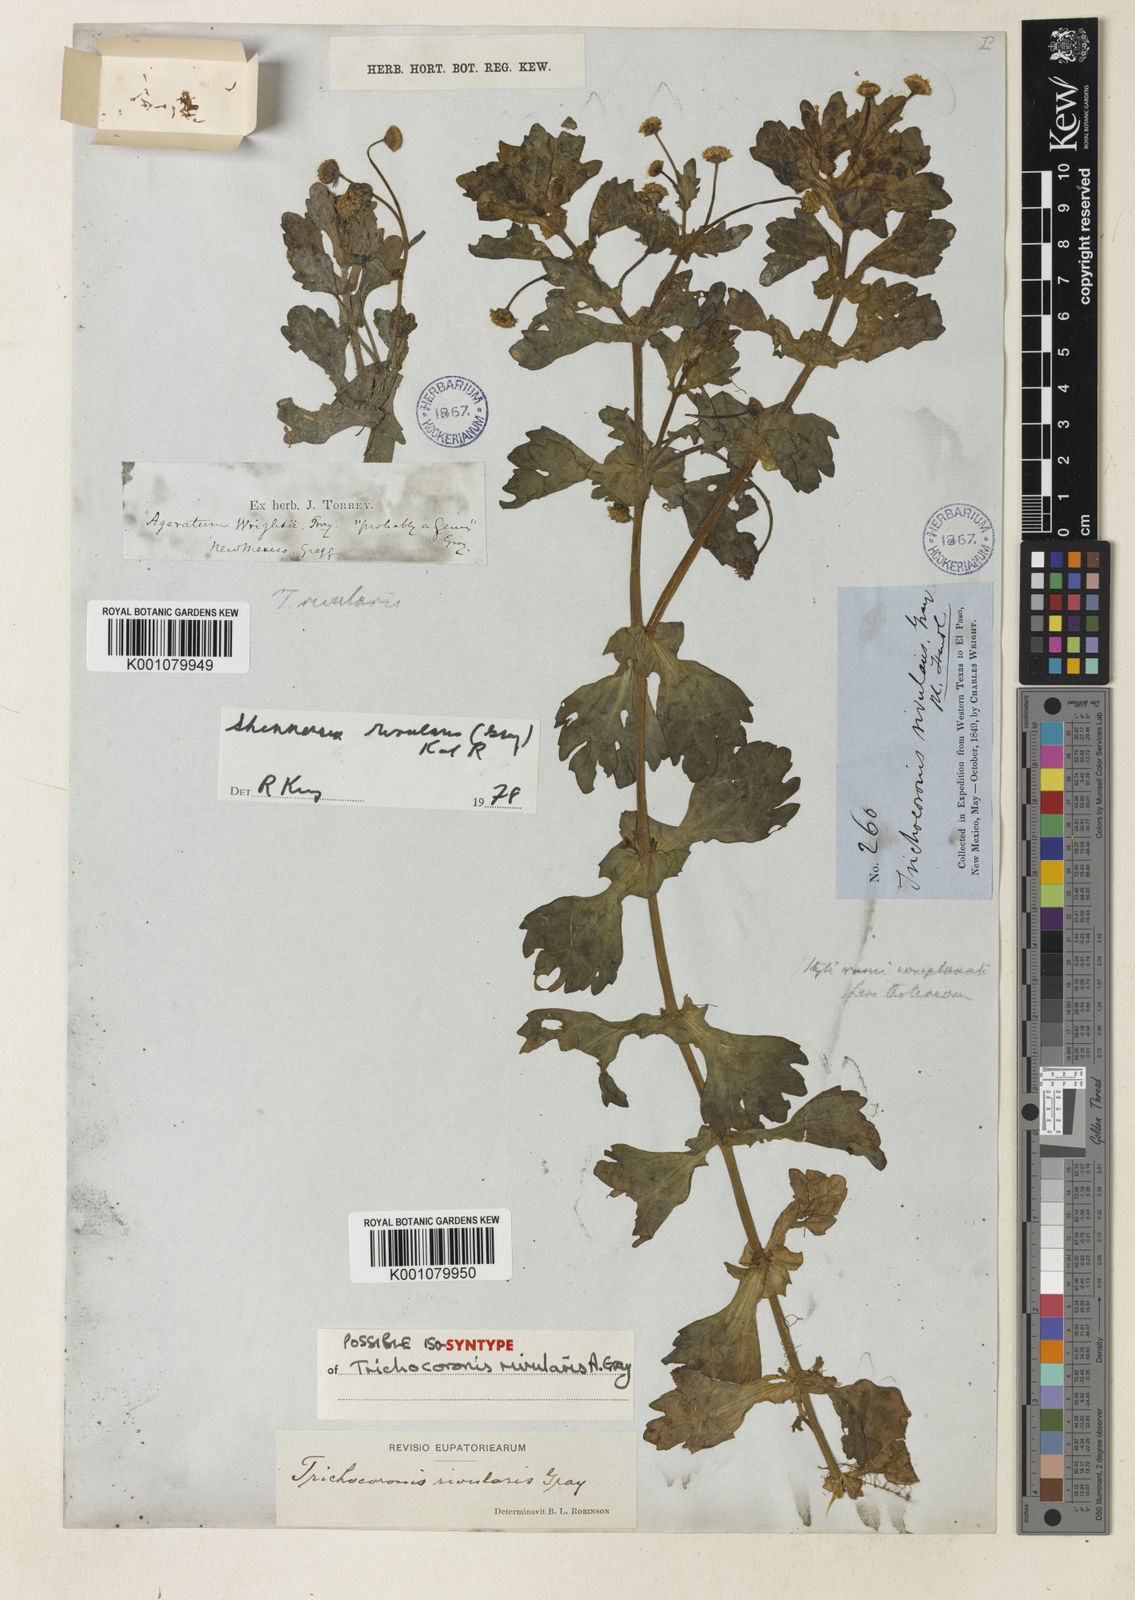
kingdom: Plantae
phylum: Tracheophyta
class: Magnoliopsida
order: Asterales
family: Asteraceae
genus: Shinnersia
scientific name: Shinnersia rivularis
